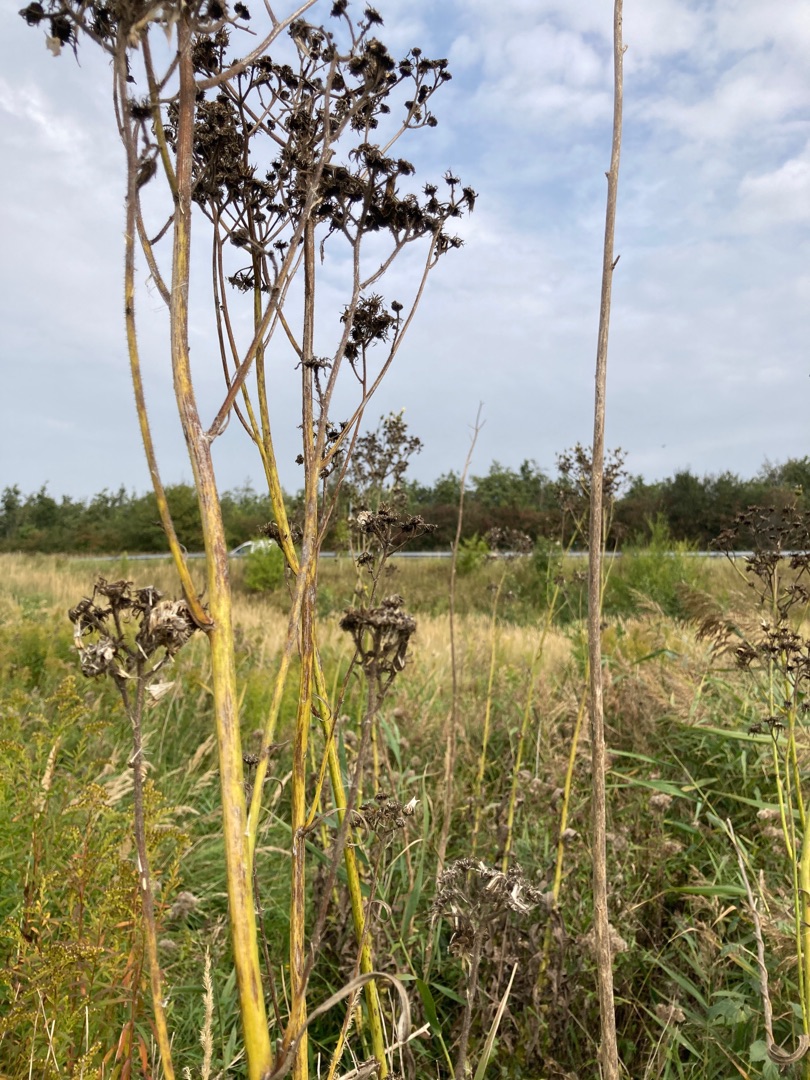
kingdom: Plantae
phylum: Tracheophyta
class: Magnoliopsida
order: Asterales
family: Asteraceae
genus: Sonchus
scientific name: Sonchus palustris
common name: Kær-svinemælk
